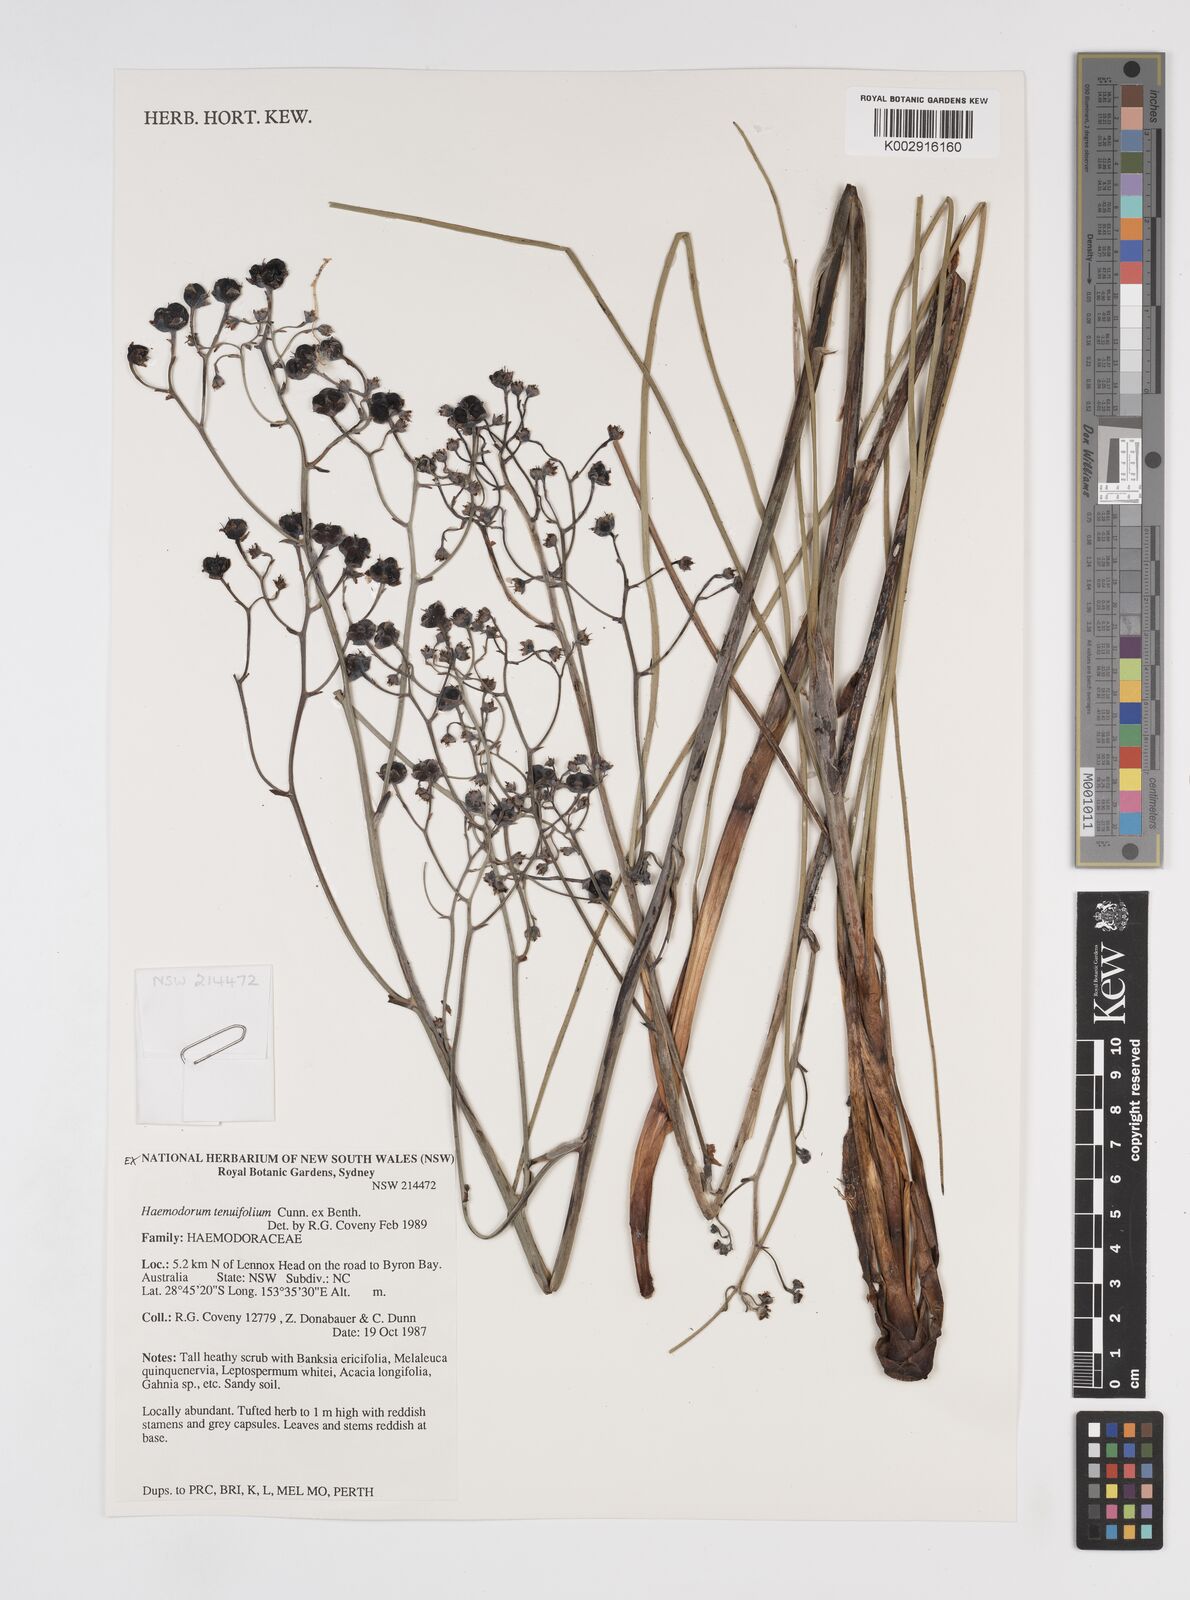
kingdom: Plantae
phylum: Tracheophyta
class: Liliopsida
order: Commelinales
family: Haemodoraceae
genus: Haemodorum
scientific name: Haemodorum tenuifolium
